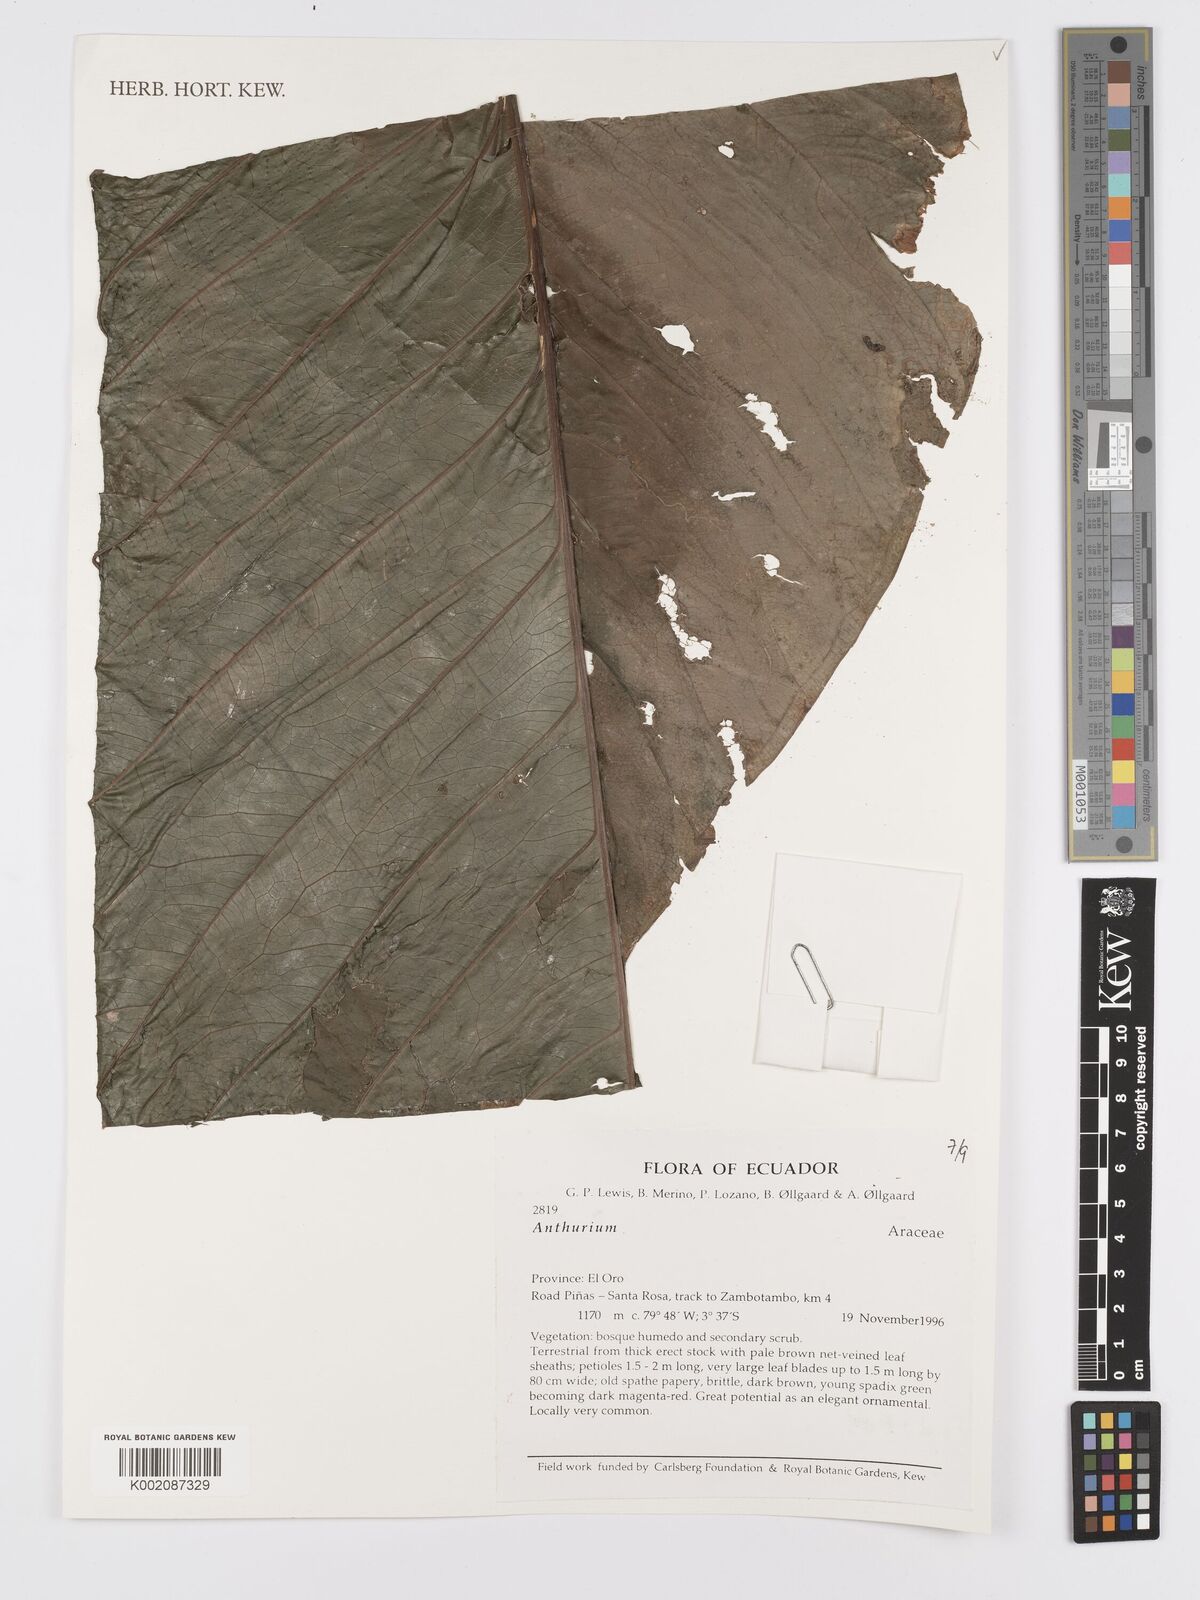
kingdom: Plantae
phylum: Tracheophyta
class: Liliopsida
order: Alismatales
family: Araceae
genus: Anthurium
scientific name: Anthurium
